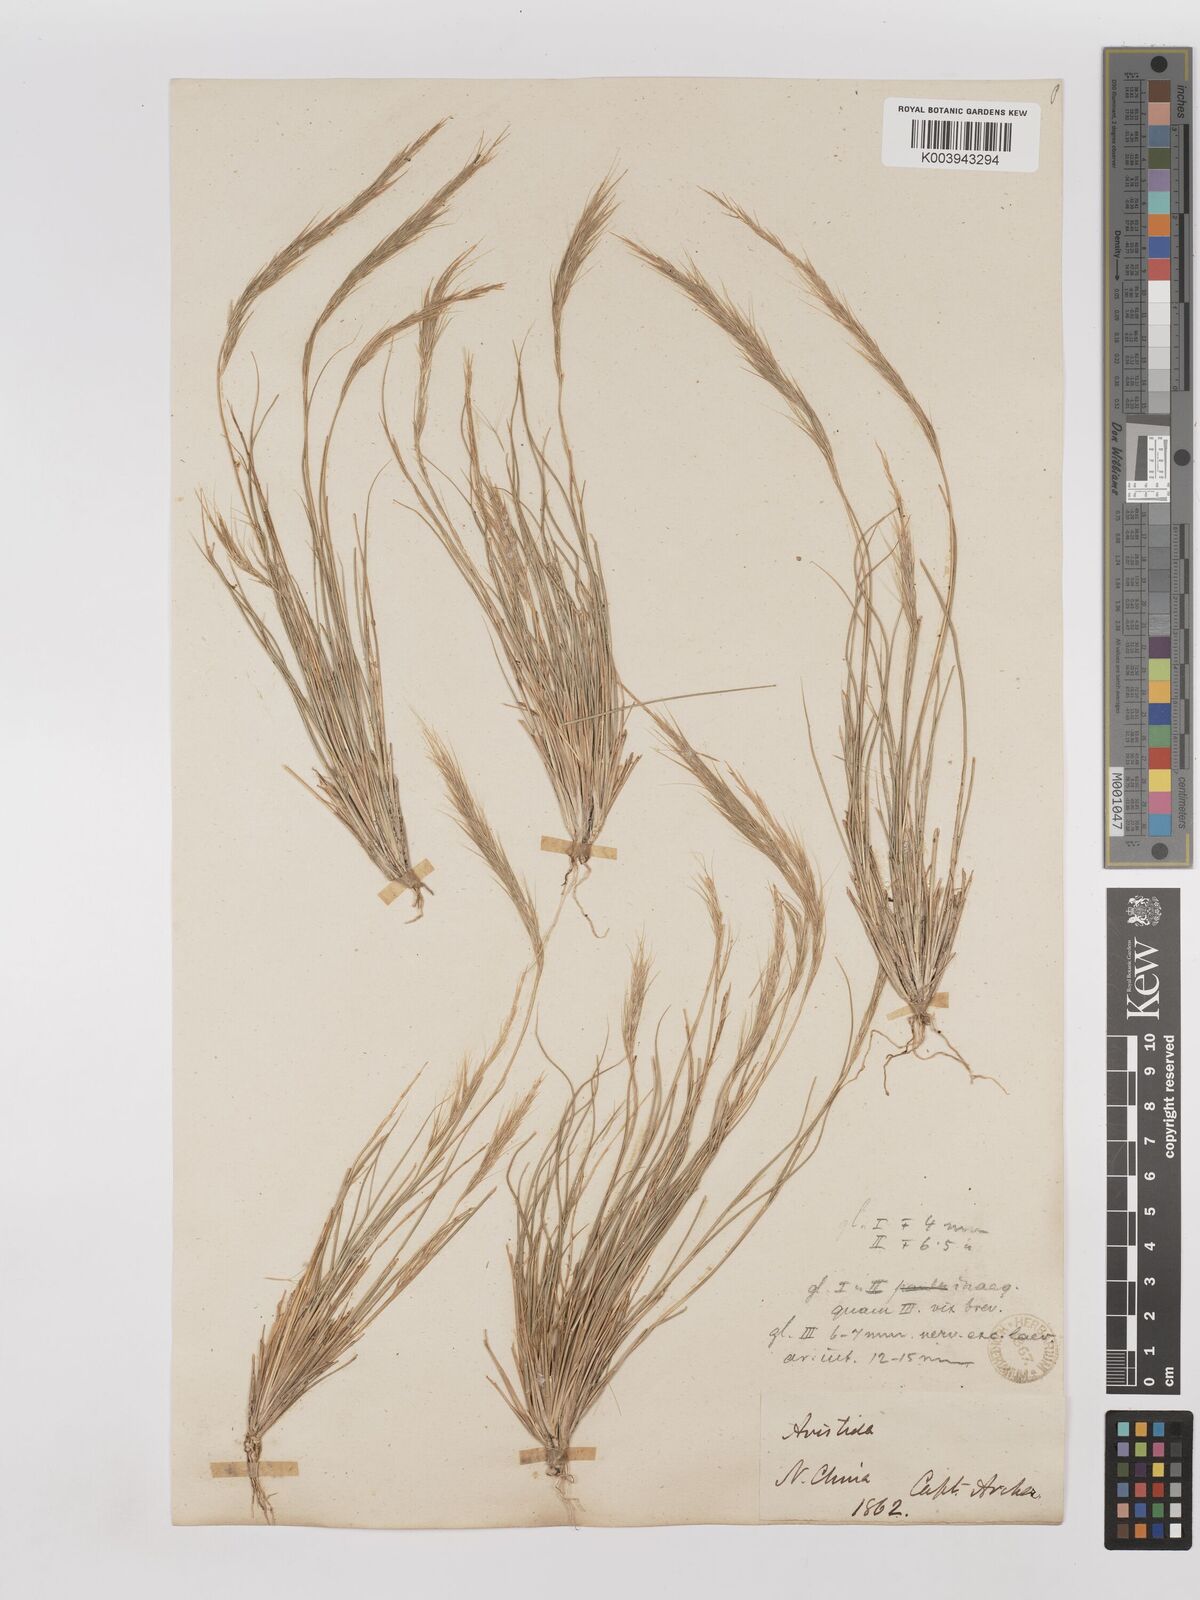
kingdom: Plantae
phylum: Tracheophyta
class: Liliopsida
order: Poales
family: Poaceae
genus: Aristida
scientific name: Aristida adscensionis
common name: Sixweeks threeawn
